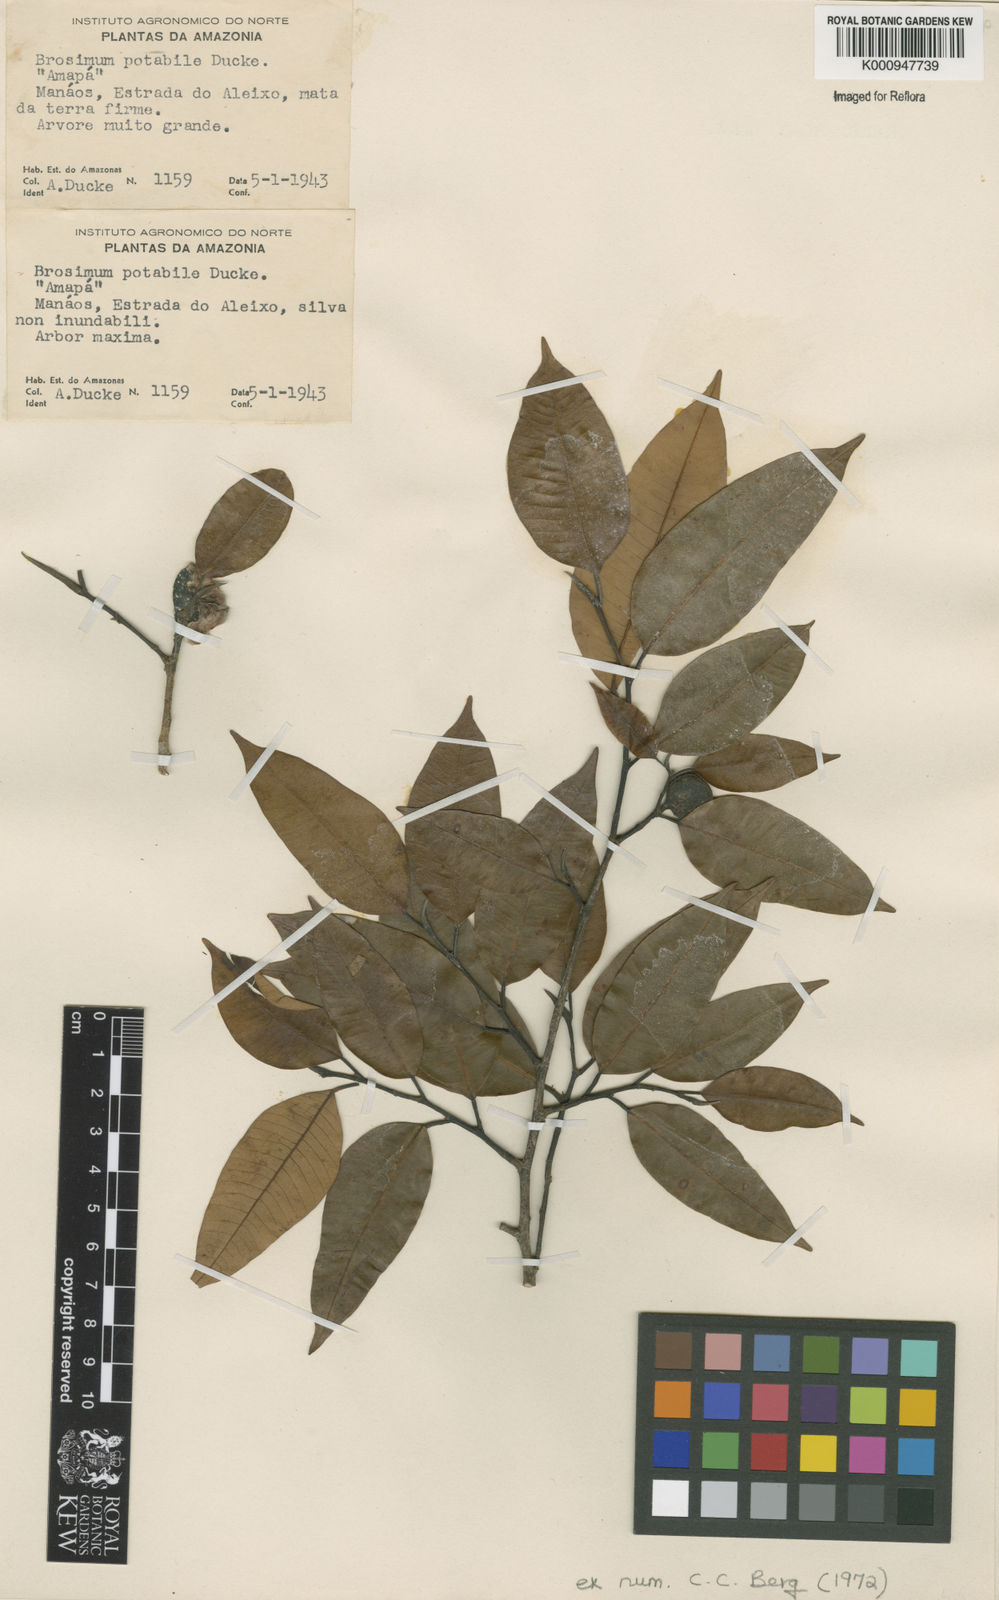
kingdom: Plantae
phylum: Tracheophyta
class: Magnoliopsida
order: Rosales
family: Moraceae
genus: Brosimum
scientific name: Brosimum potabile
